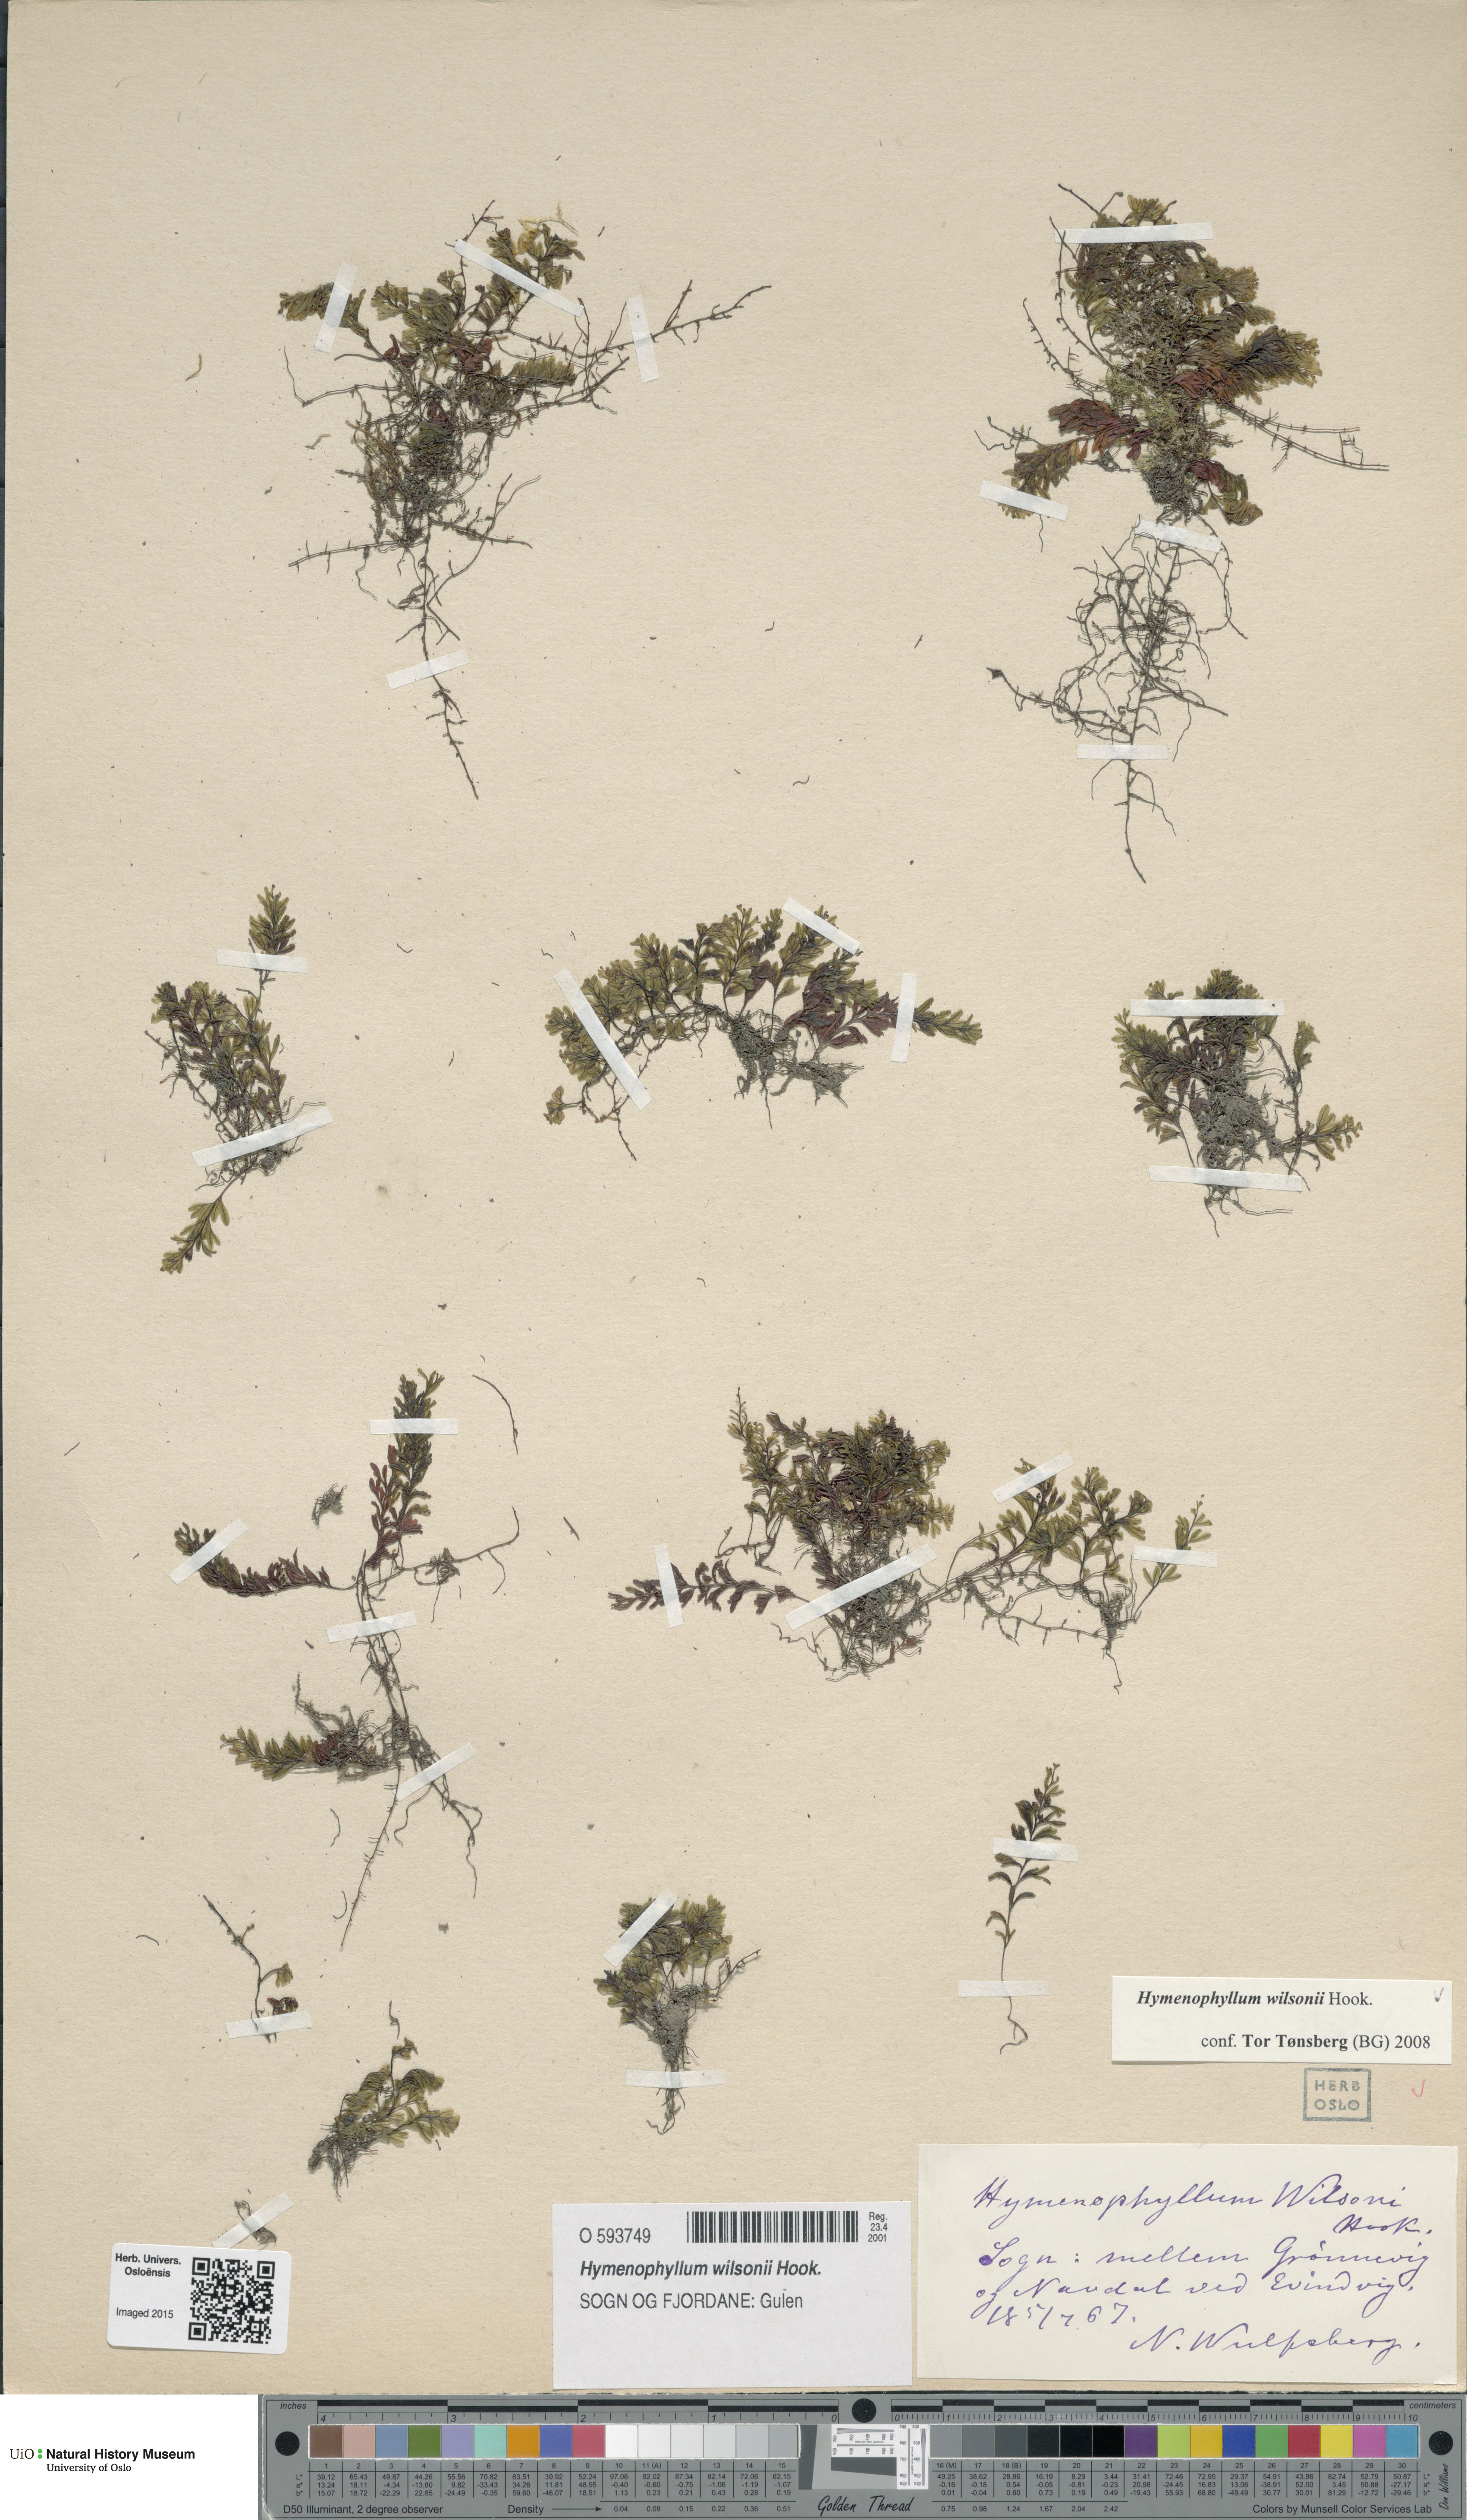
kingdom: Plantae
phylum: Tracheophyta
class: Polypodiopsida
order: Hymenophyllales
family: Hymenophyllaceae
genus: Hymenophyllum
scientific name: Hymenophyllum peltatum
